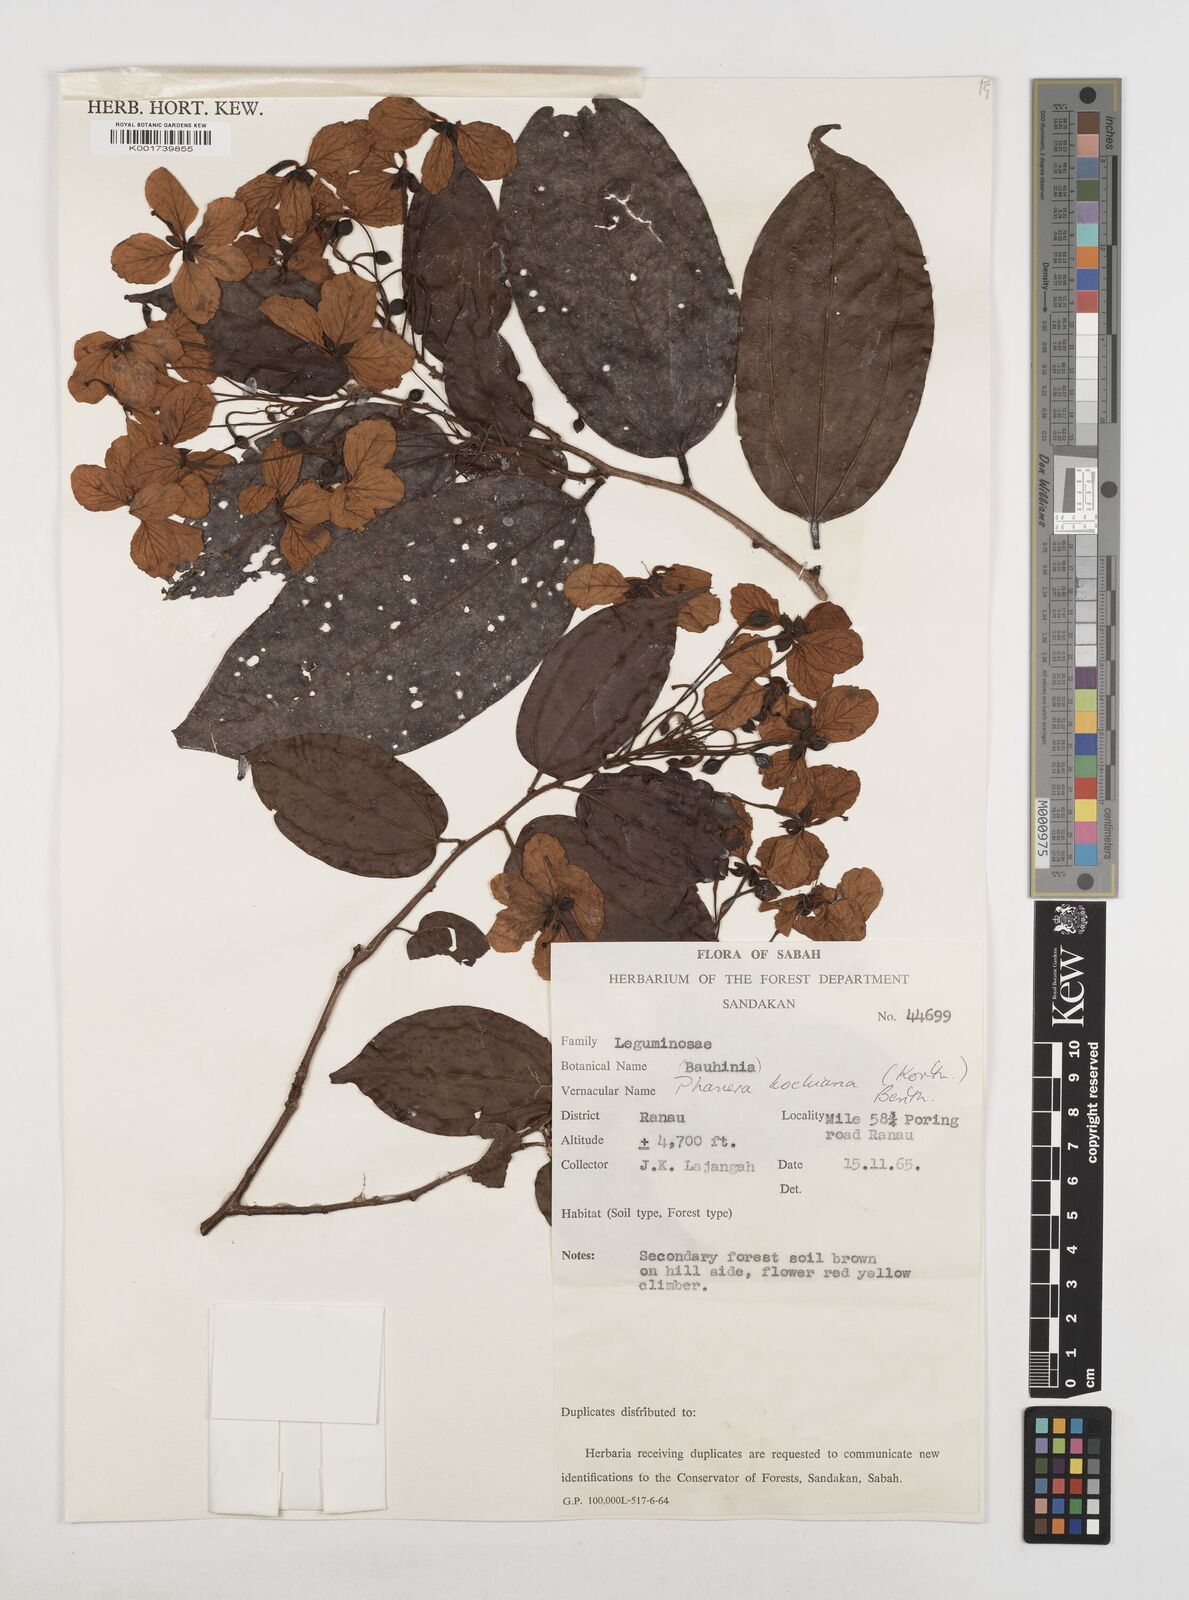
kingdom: Plantae
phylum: Tracheophyta
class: Magnoliopsida
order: Fabales
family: Fabaceae
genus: Phanera
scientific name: Phanera kockiana
